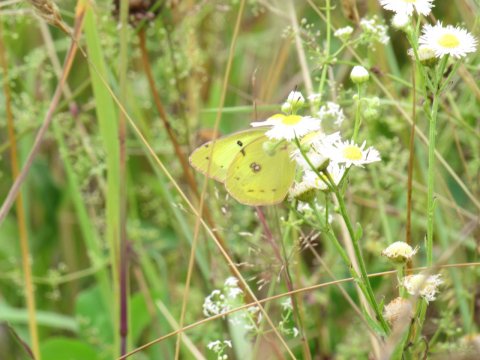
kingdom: Animalia
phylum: Arthropoda
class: Insecta
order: Lepidoptera
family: Pieridae
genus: Colias
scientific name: Colias philodice
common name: Clouded Sulphur
